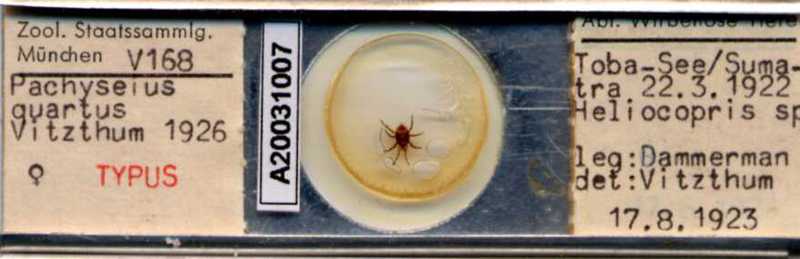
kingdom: Animalia
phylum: Arthropoda
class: Arachnida
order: Mesostigmata
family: Pachylaelapidae
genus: Neoparasitus
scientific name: Neoparasitus
